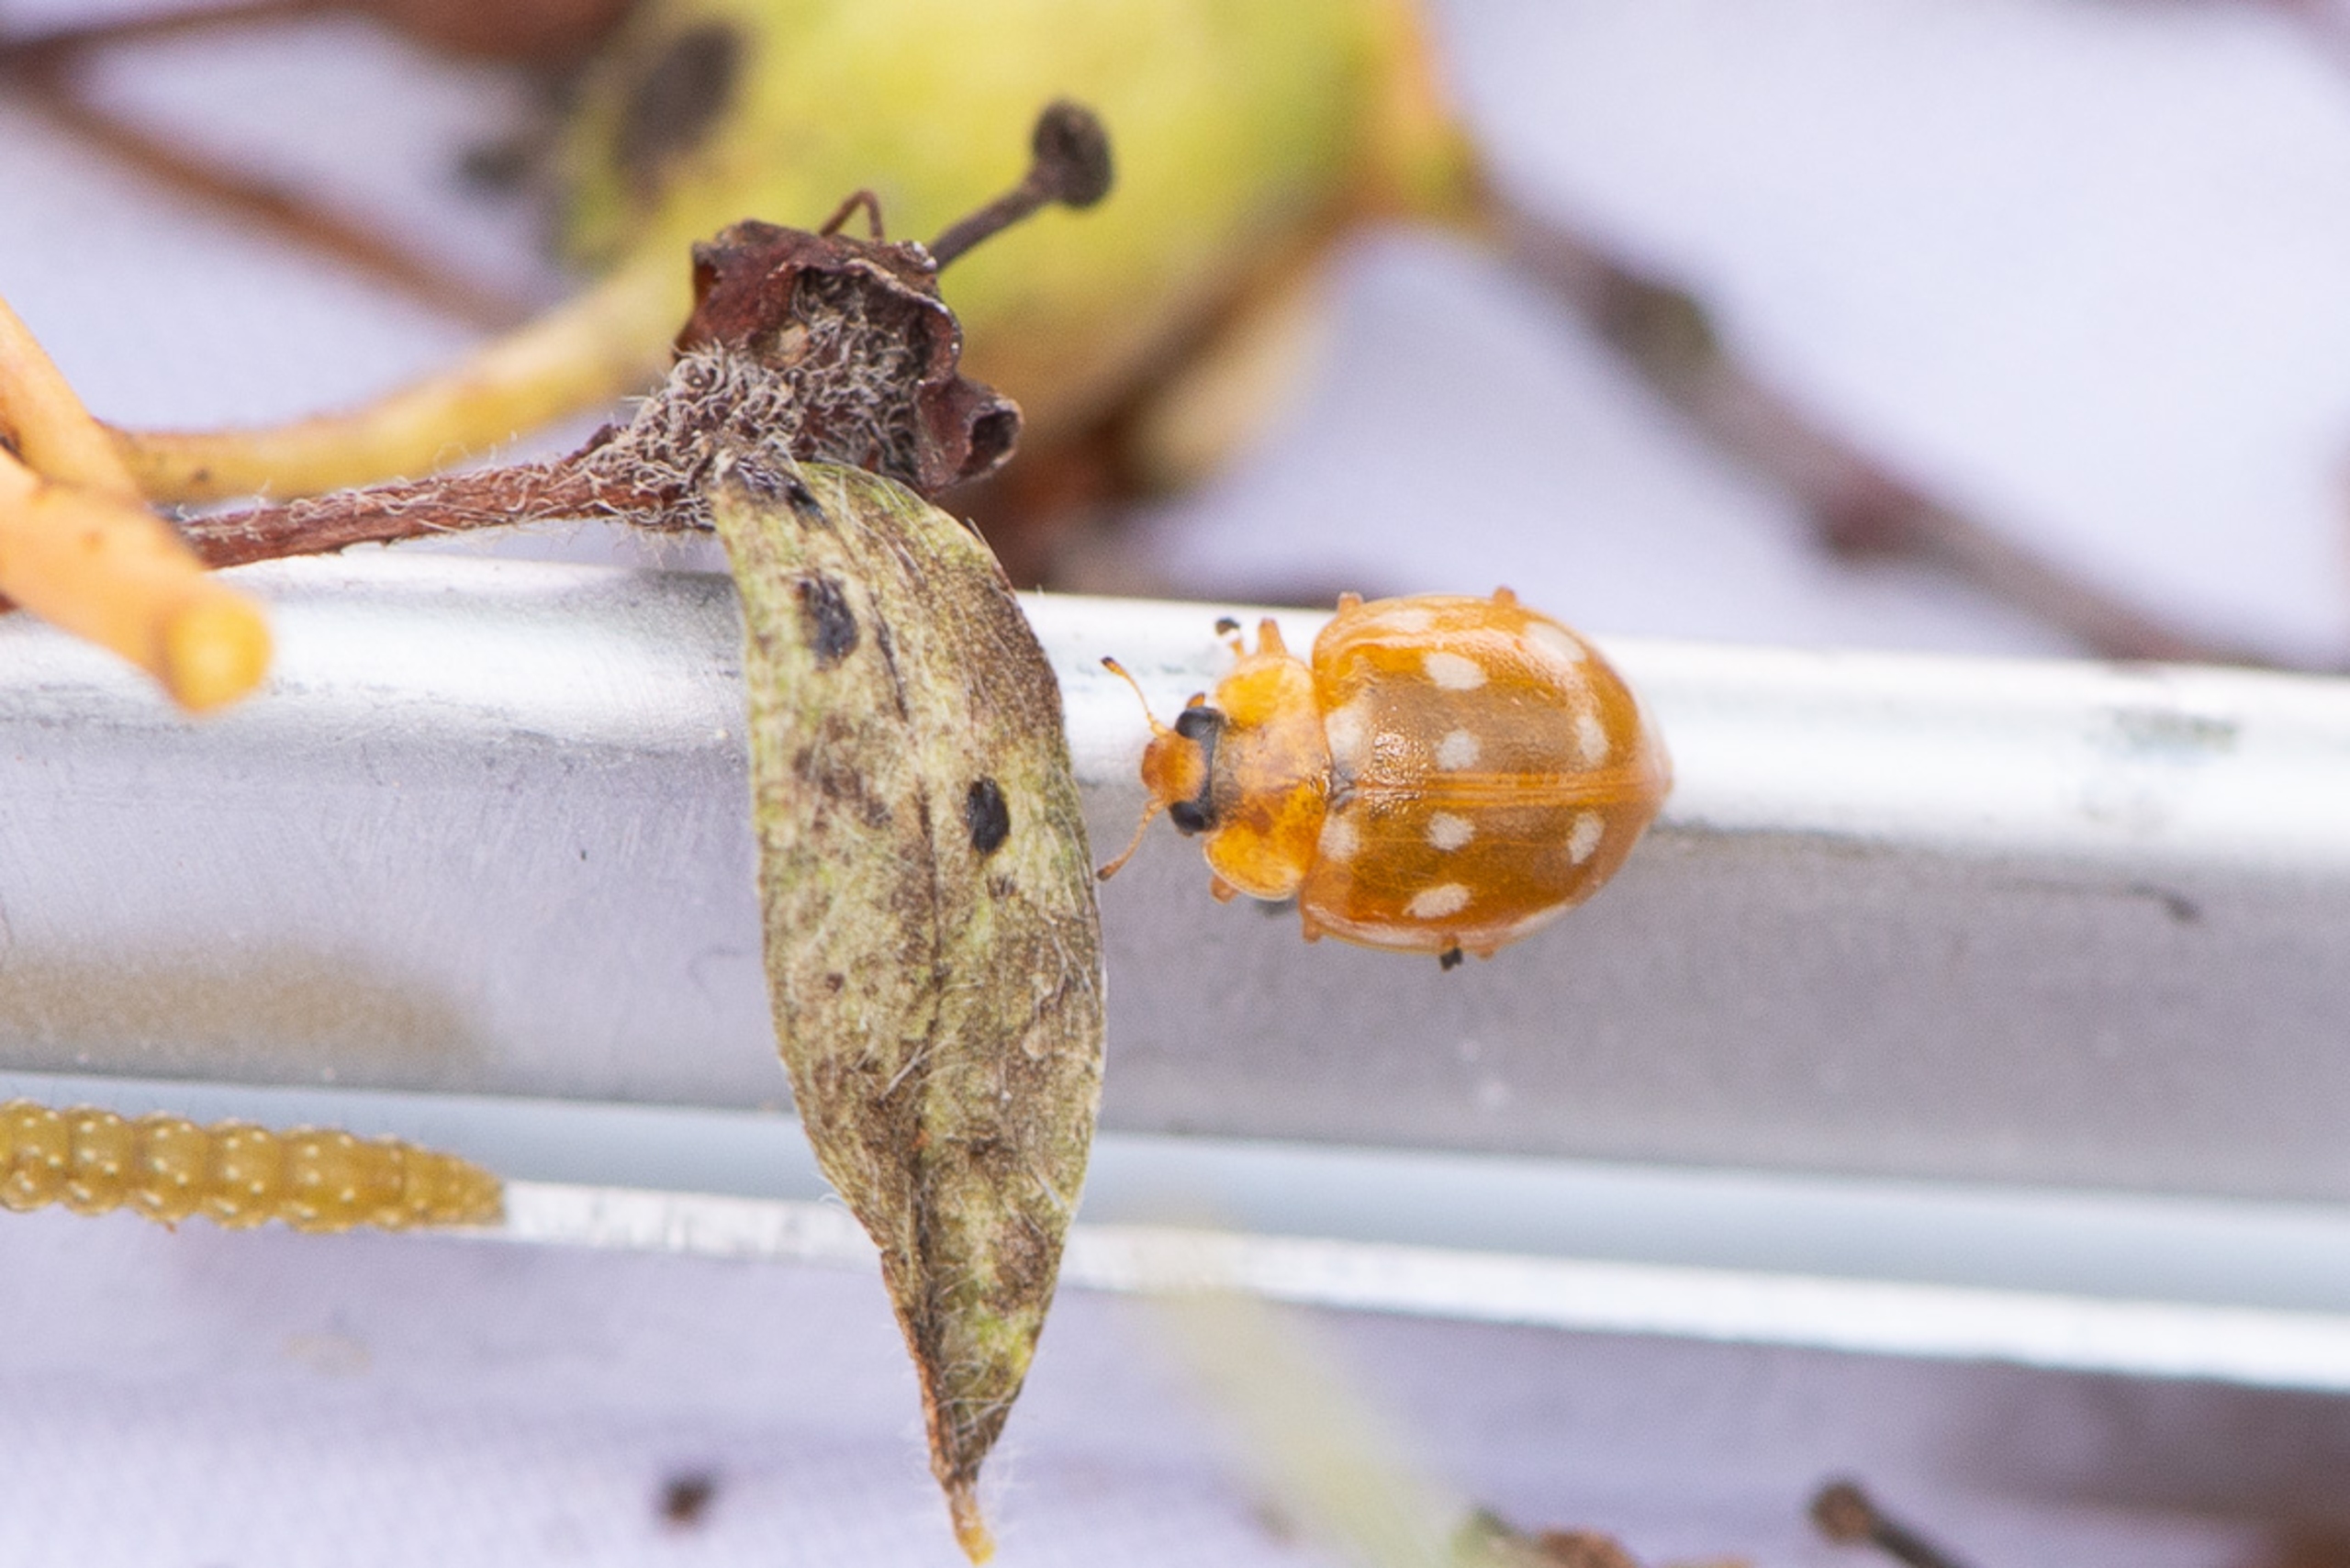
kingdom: Animalia
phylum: Arthropoda
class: Insecta
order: Coleoptera
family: Coccinellidae
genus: Calvia
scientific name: Calvia quatuordecimguttata
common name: Fjortenplettet mariehøne
